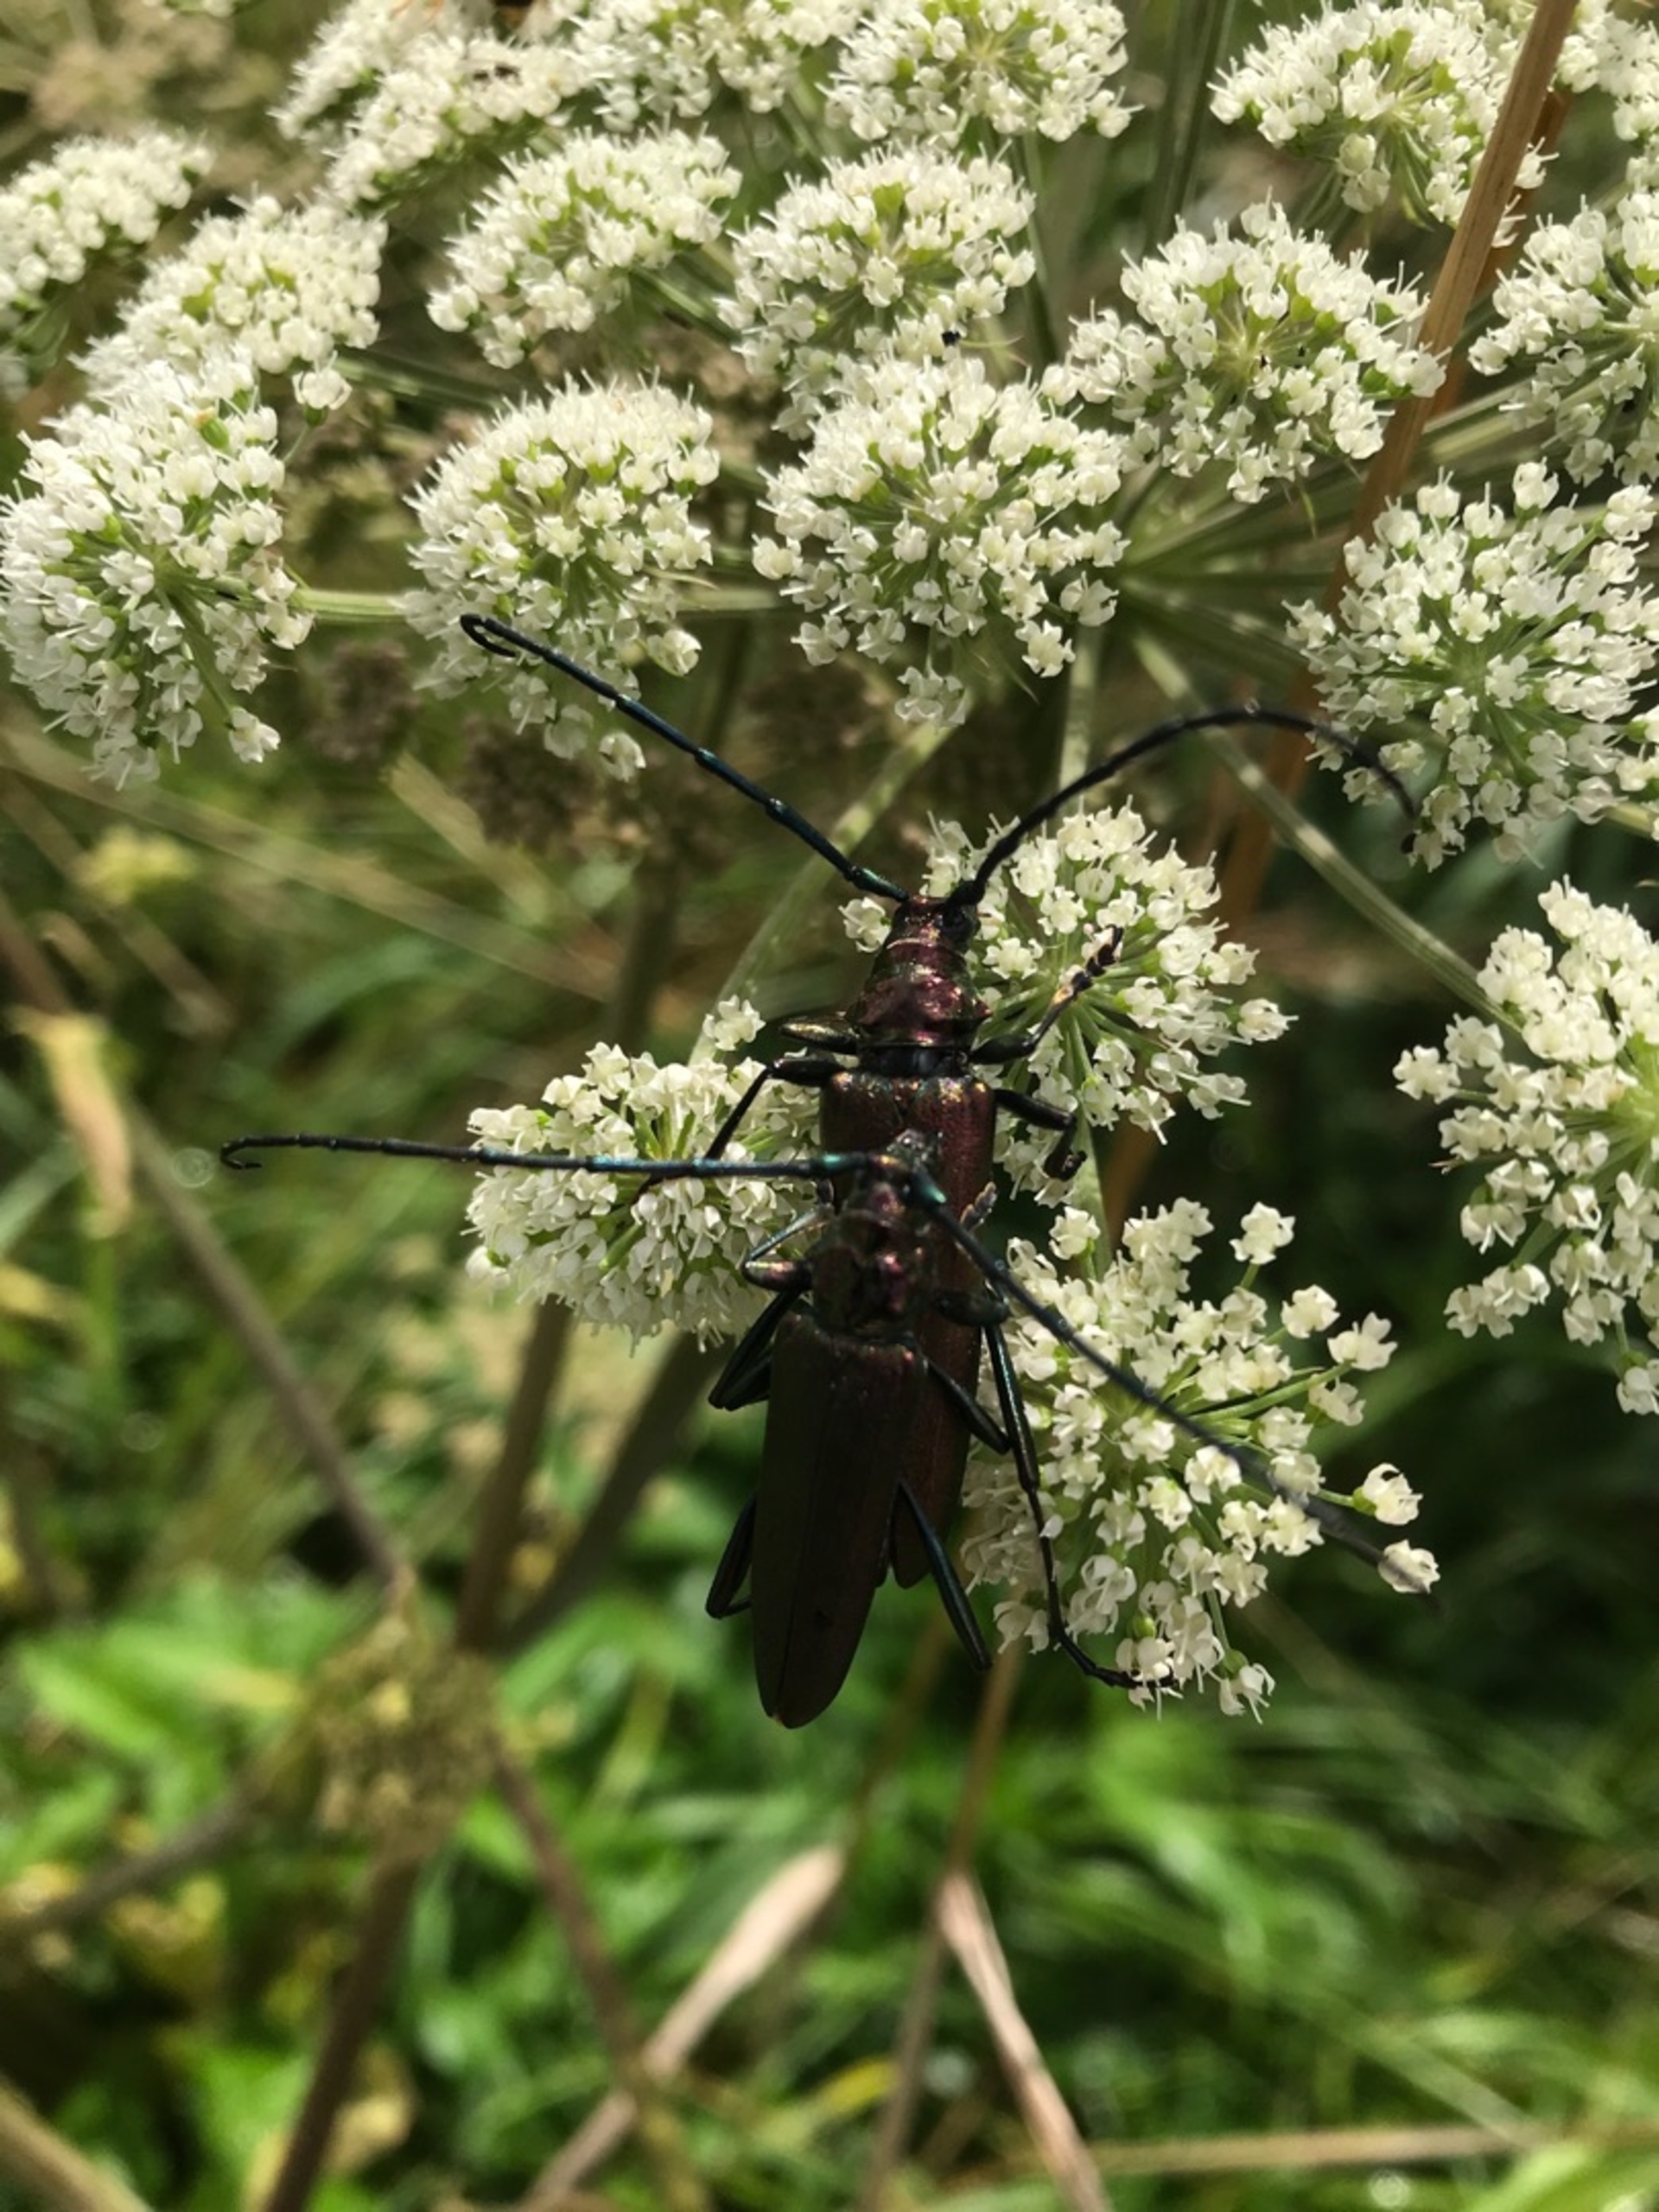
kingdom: Animalia
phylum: Arthropoda
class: Insecta
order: Coleoptera
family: Cerambycidae
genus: Aromia
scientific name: Aromia moschata
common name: Moskusbuk
